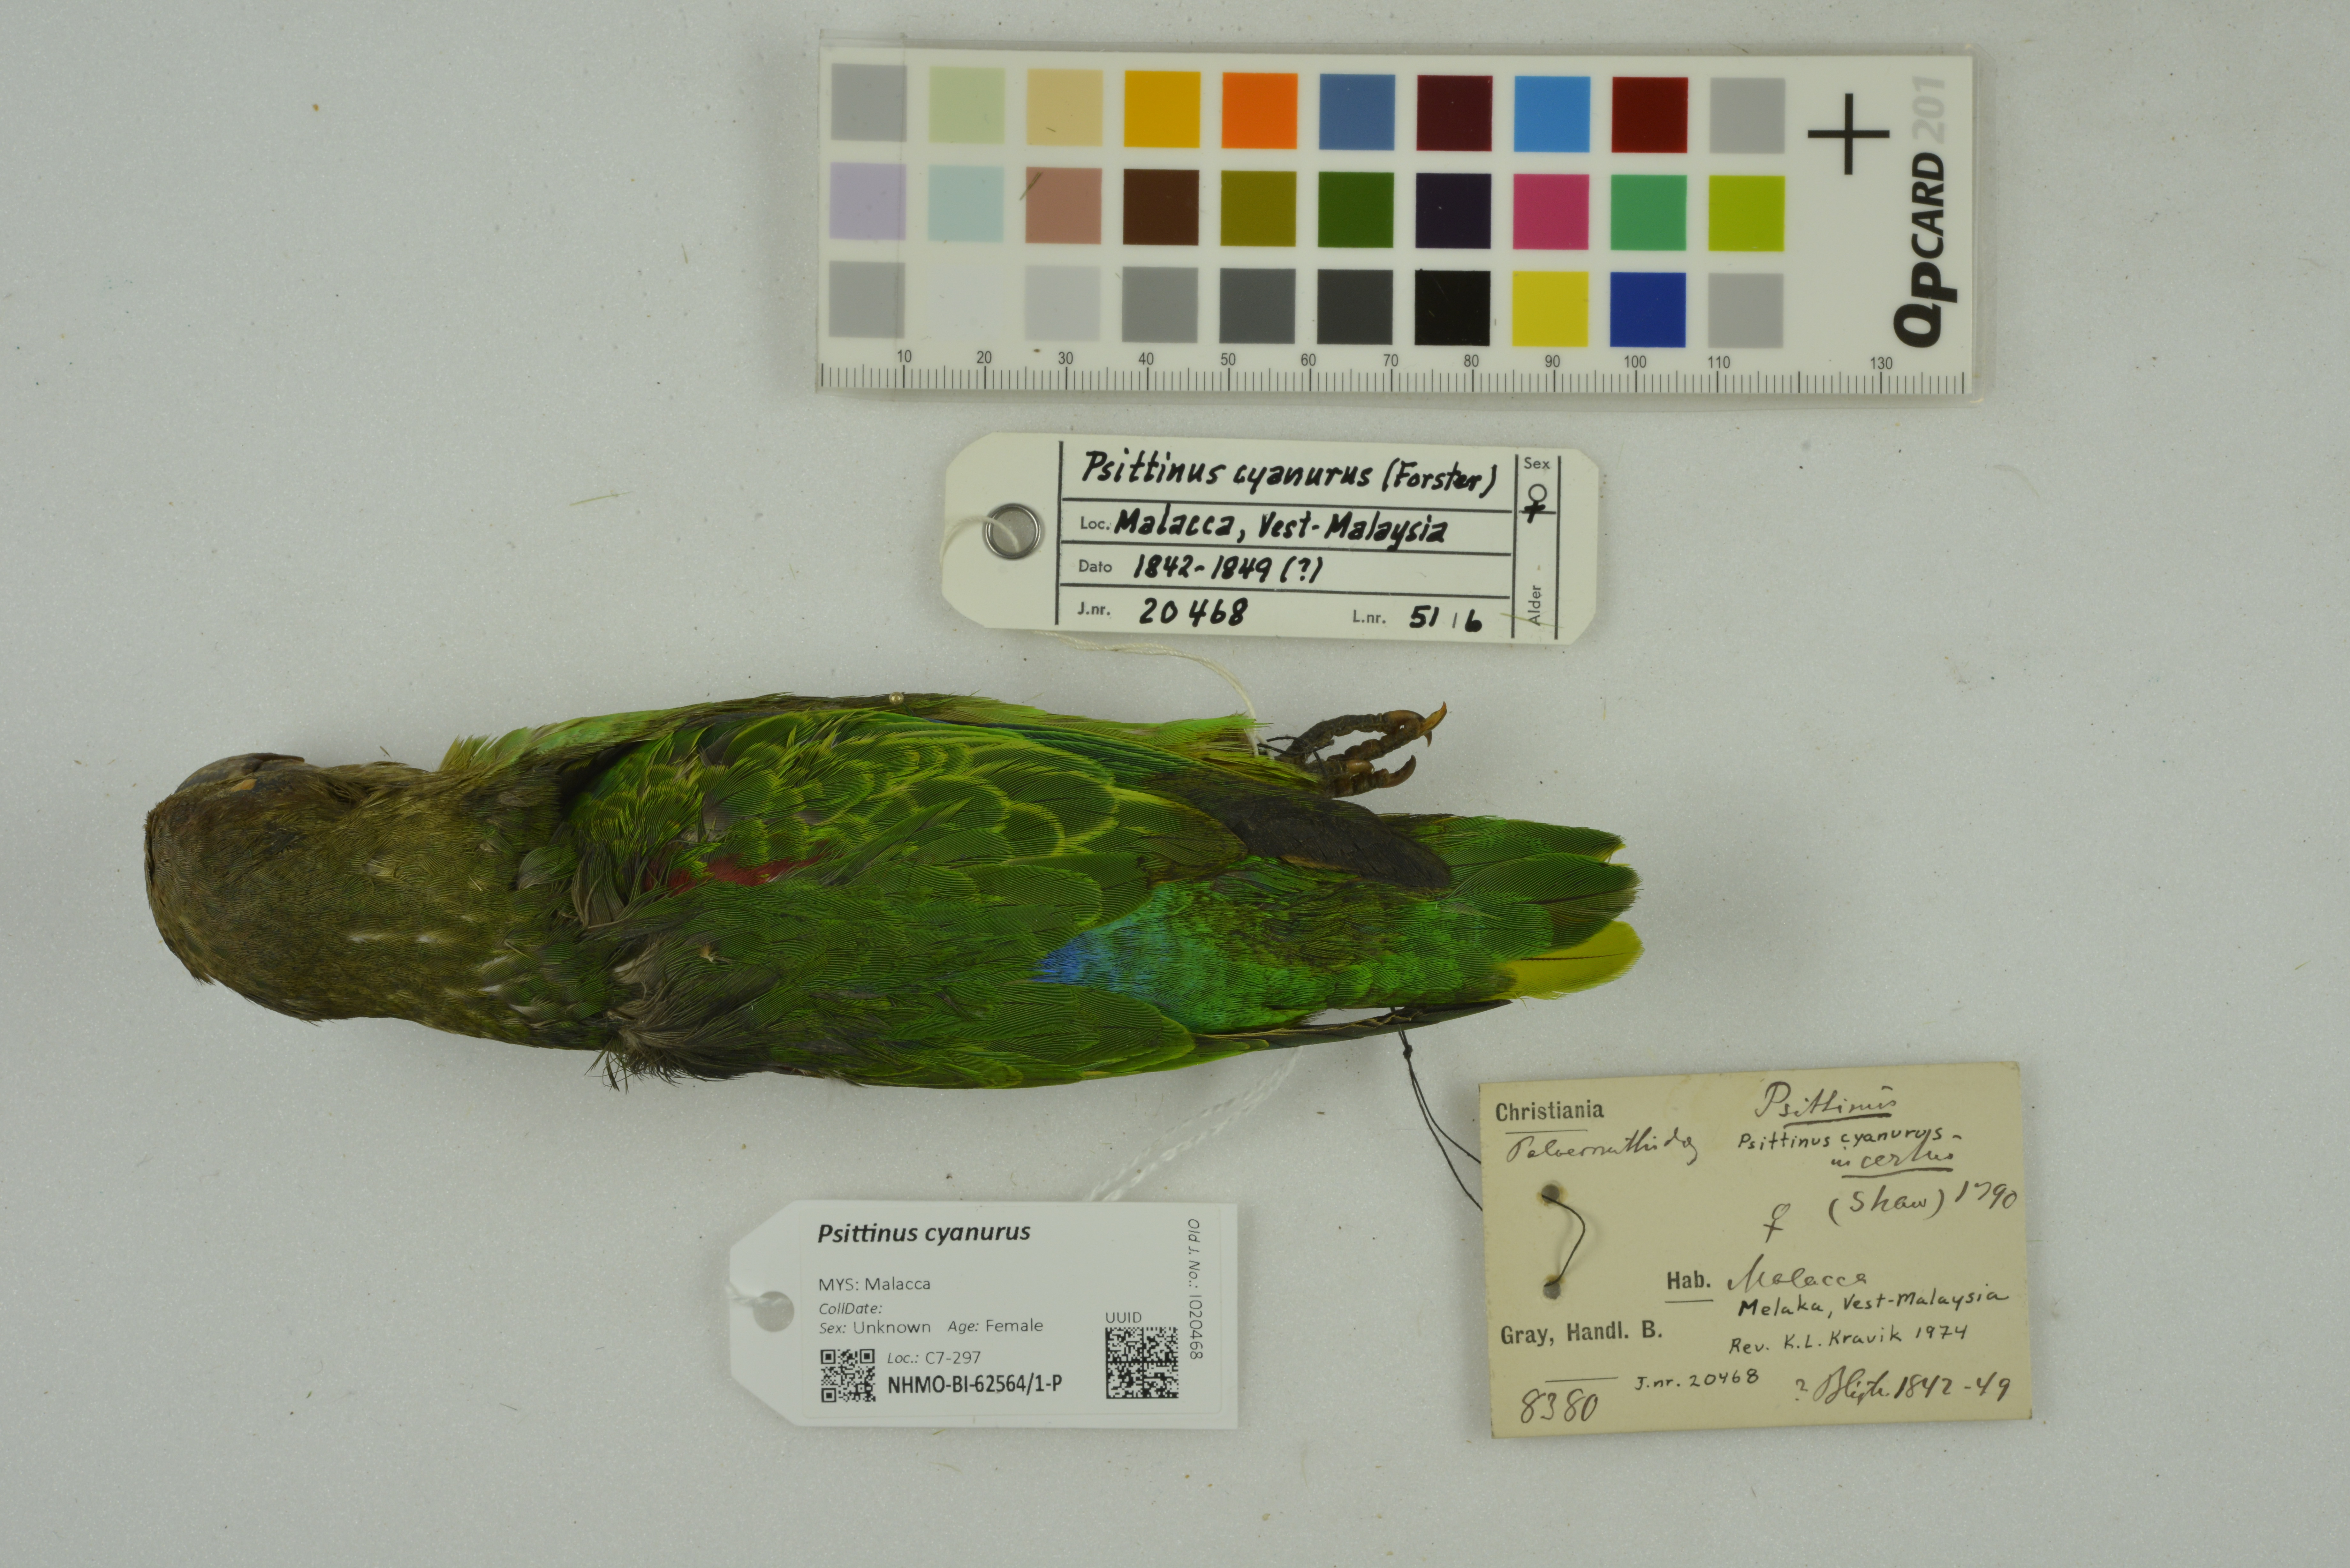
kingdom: Animalia
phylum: Chordata
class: Aves
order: Psittaciformes
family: Psittacidae
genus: Psittinus
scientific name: Psittinus cyanurus
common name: Blue-rumped parrot
